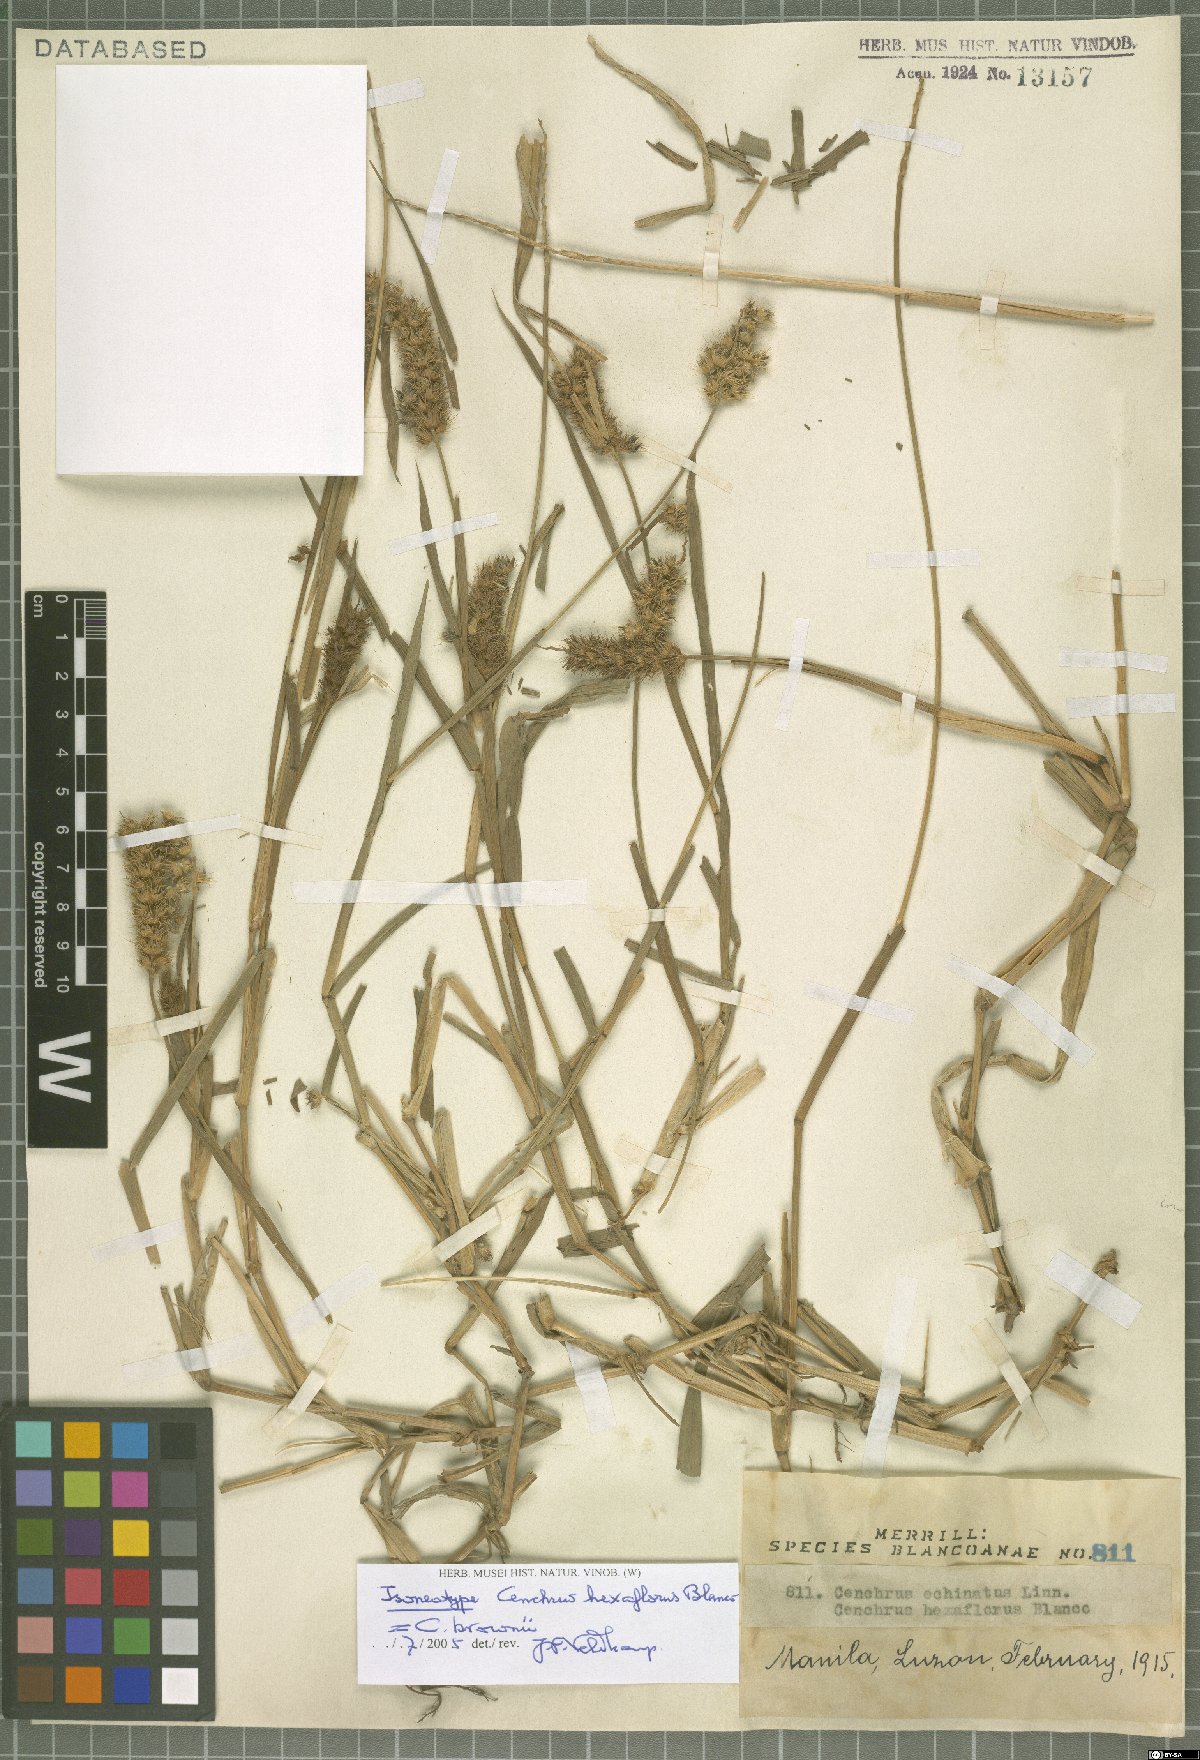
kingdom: Plantae
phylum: Tracheophyta
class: Liliopsida
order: Poales
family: Poaceae
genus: Cenchrus
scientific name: Cenchrus brownii
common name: Slim-bristle sandbur
